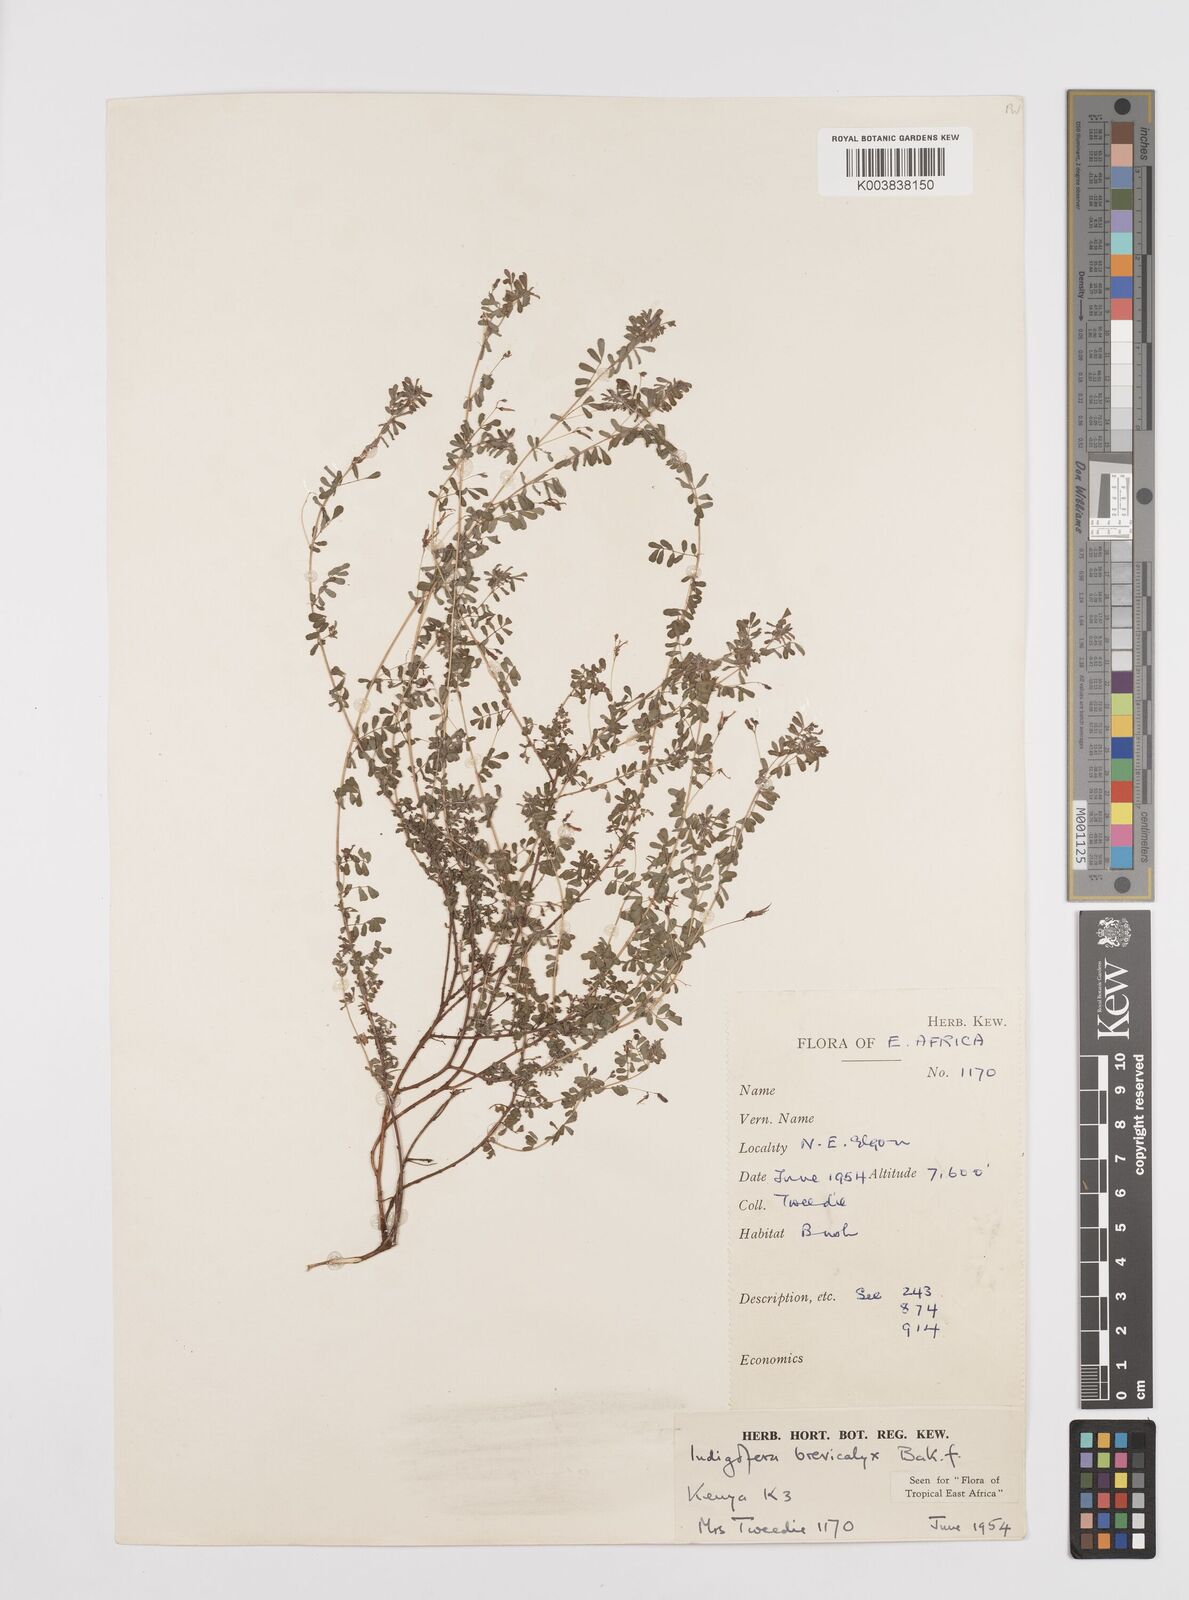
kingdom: Plantae
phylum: Tracheophyta
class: Magnoliopsida
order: Fabales
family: Fabaceae
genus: Indigofera
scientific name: Indigofera brevicalyx
